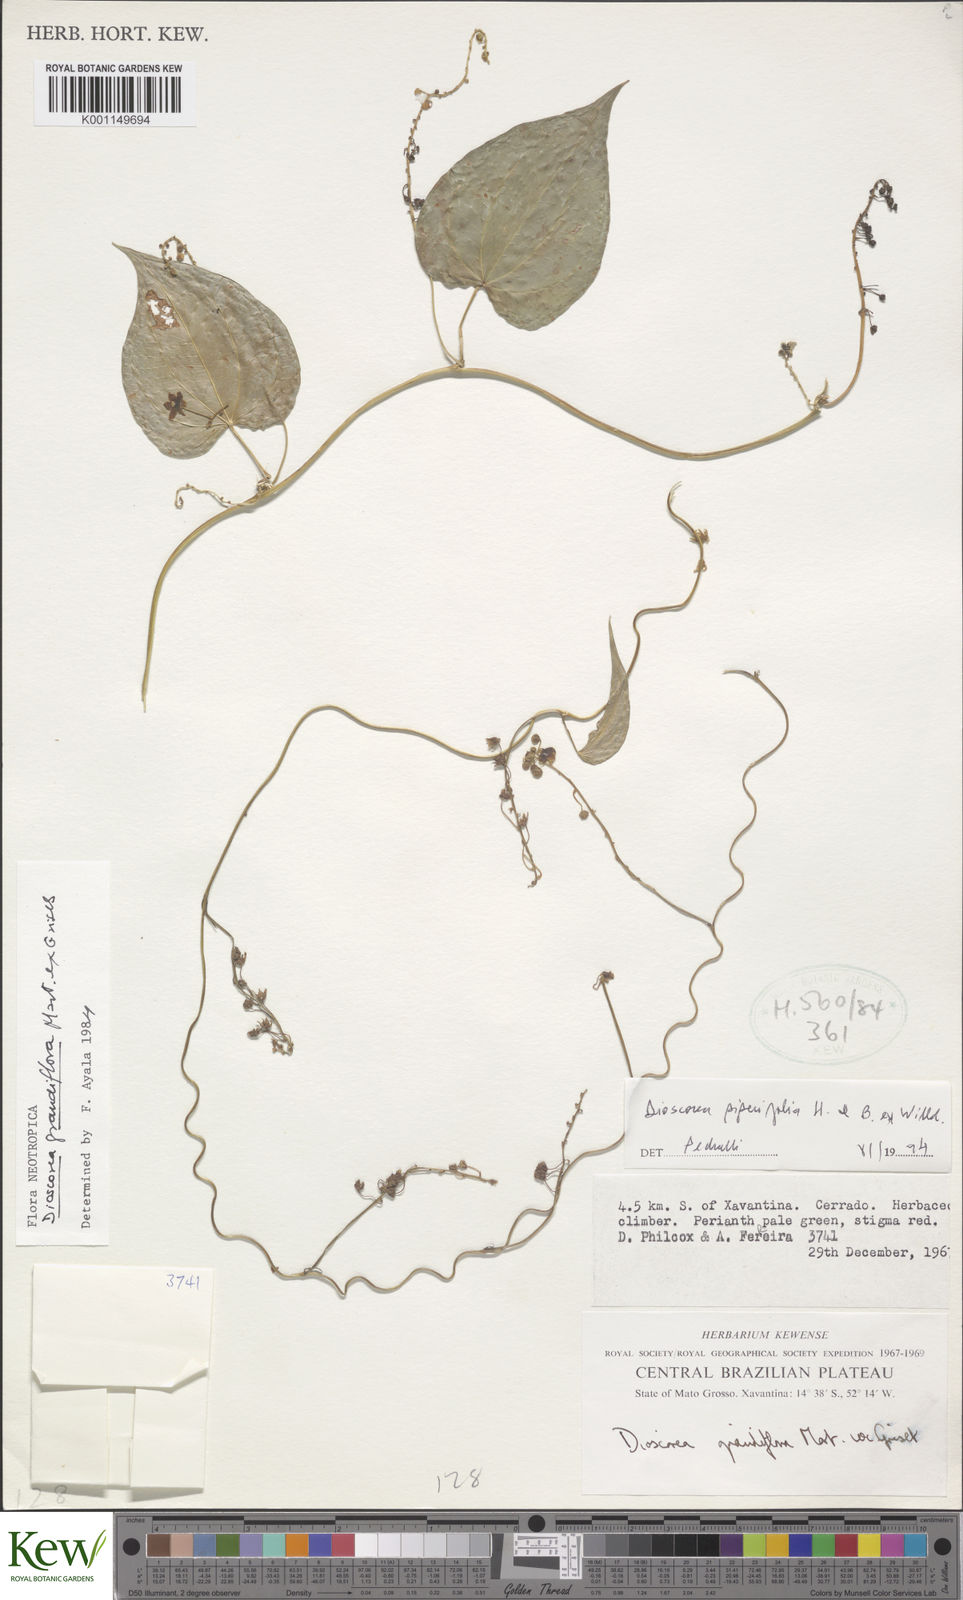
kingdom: Plantae
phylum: Tracheophyta
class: Liliopsida
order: Dioscoreales
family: Dioscoreaceae
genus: Dioscorea
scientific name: Dioscorea grandiflora
